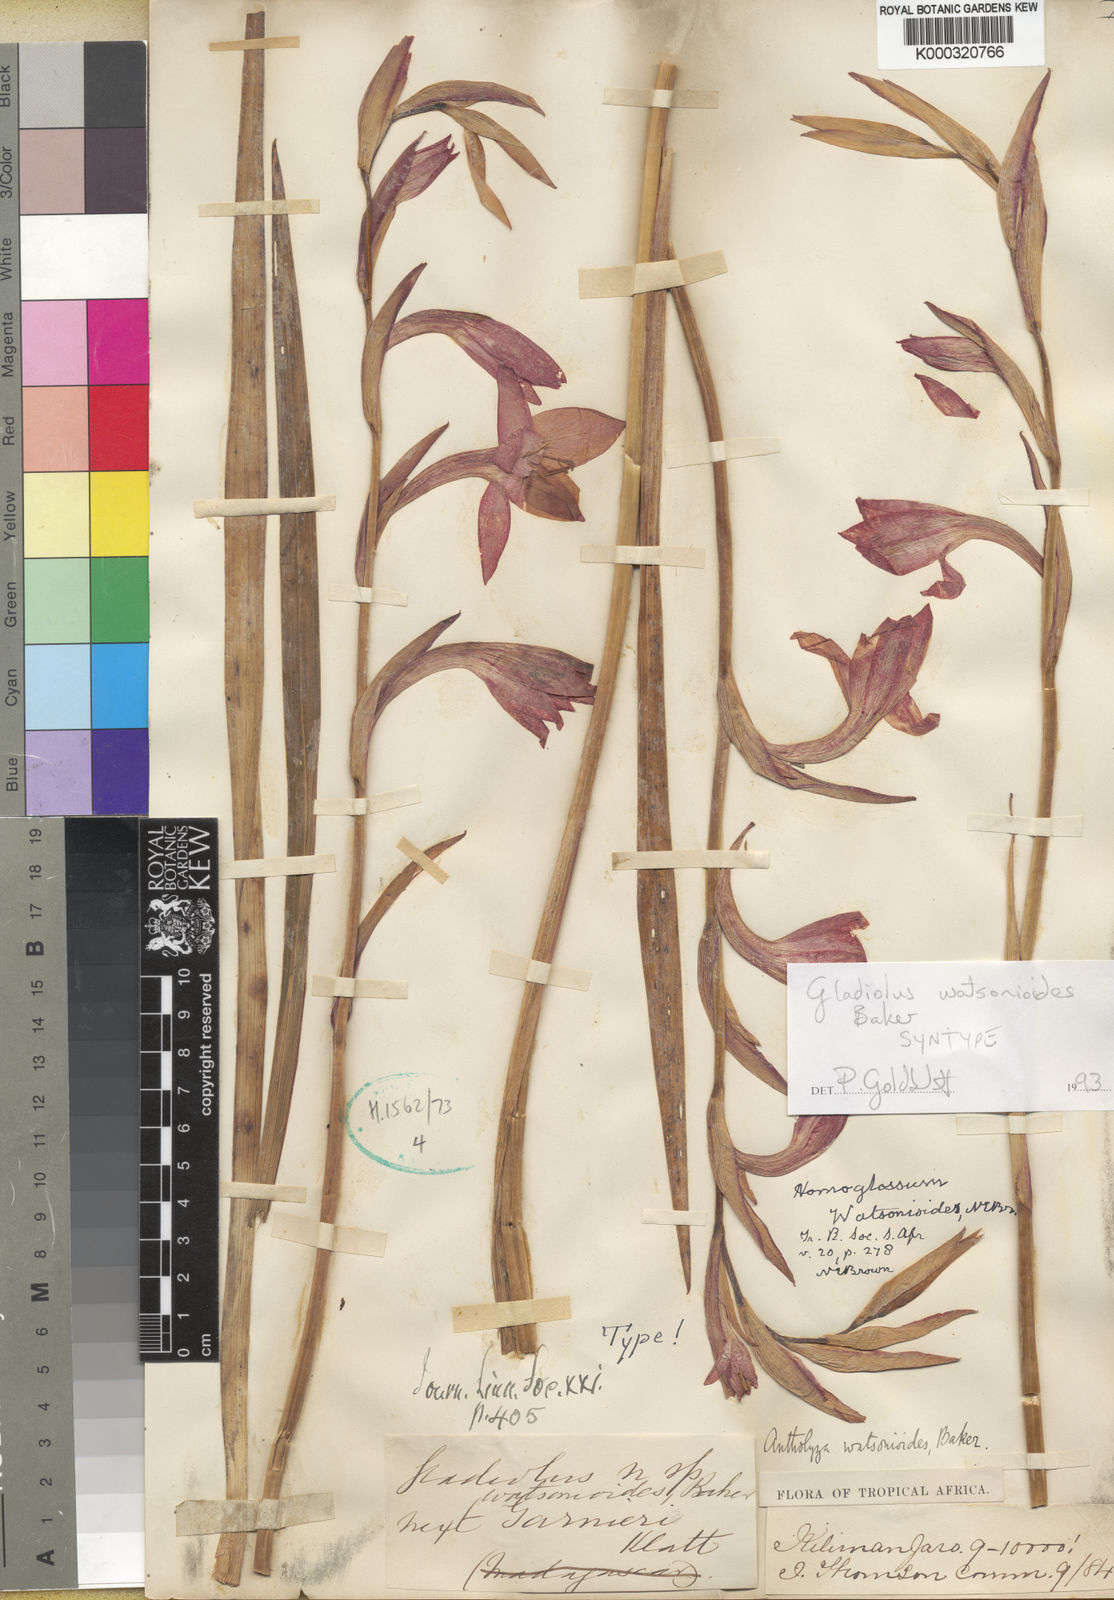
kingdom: Plantae
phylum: Tracheophyta
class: Liliopsida
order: Asparagales
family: Iridaceae
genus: Gladiolus
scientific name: Gladiolus watsonioides
